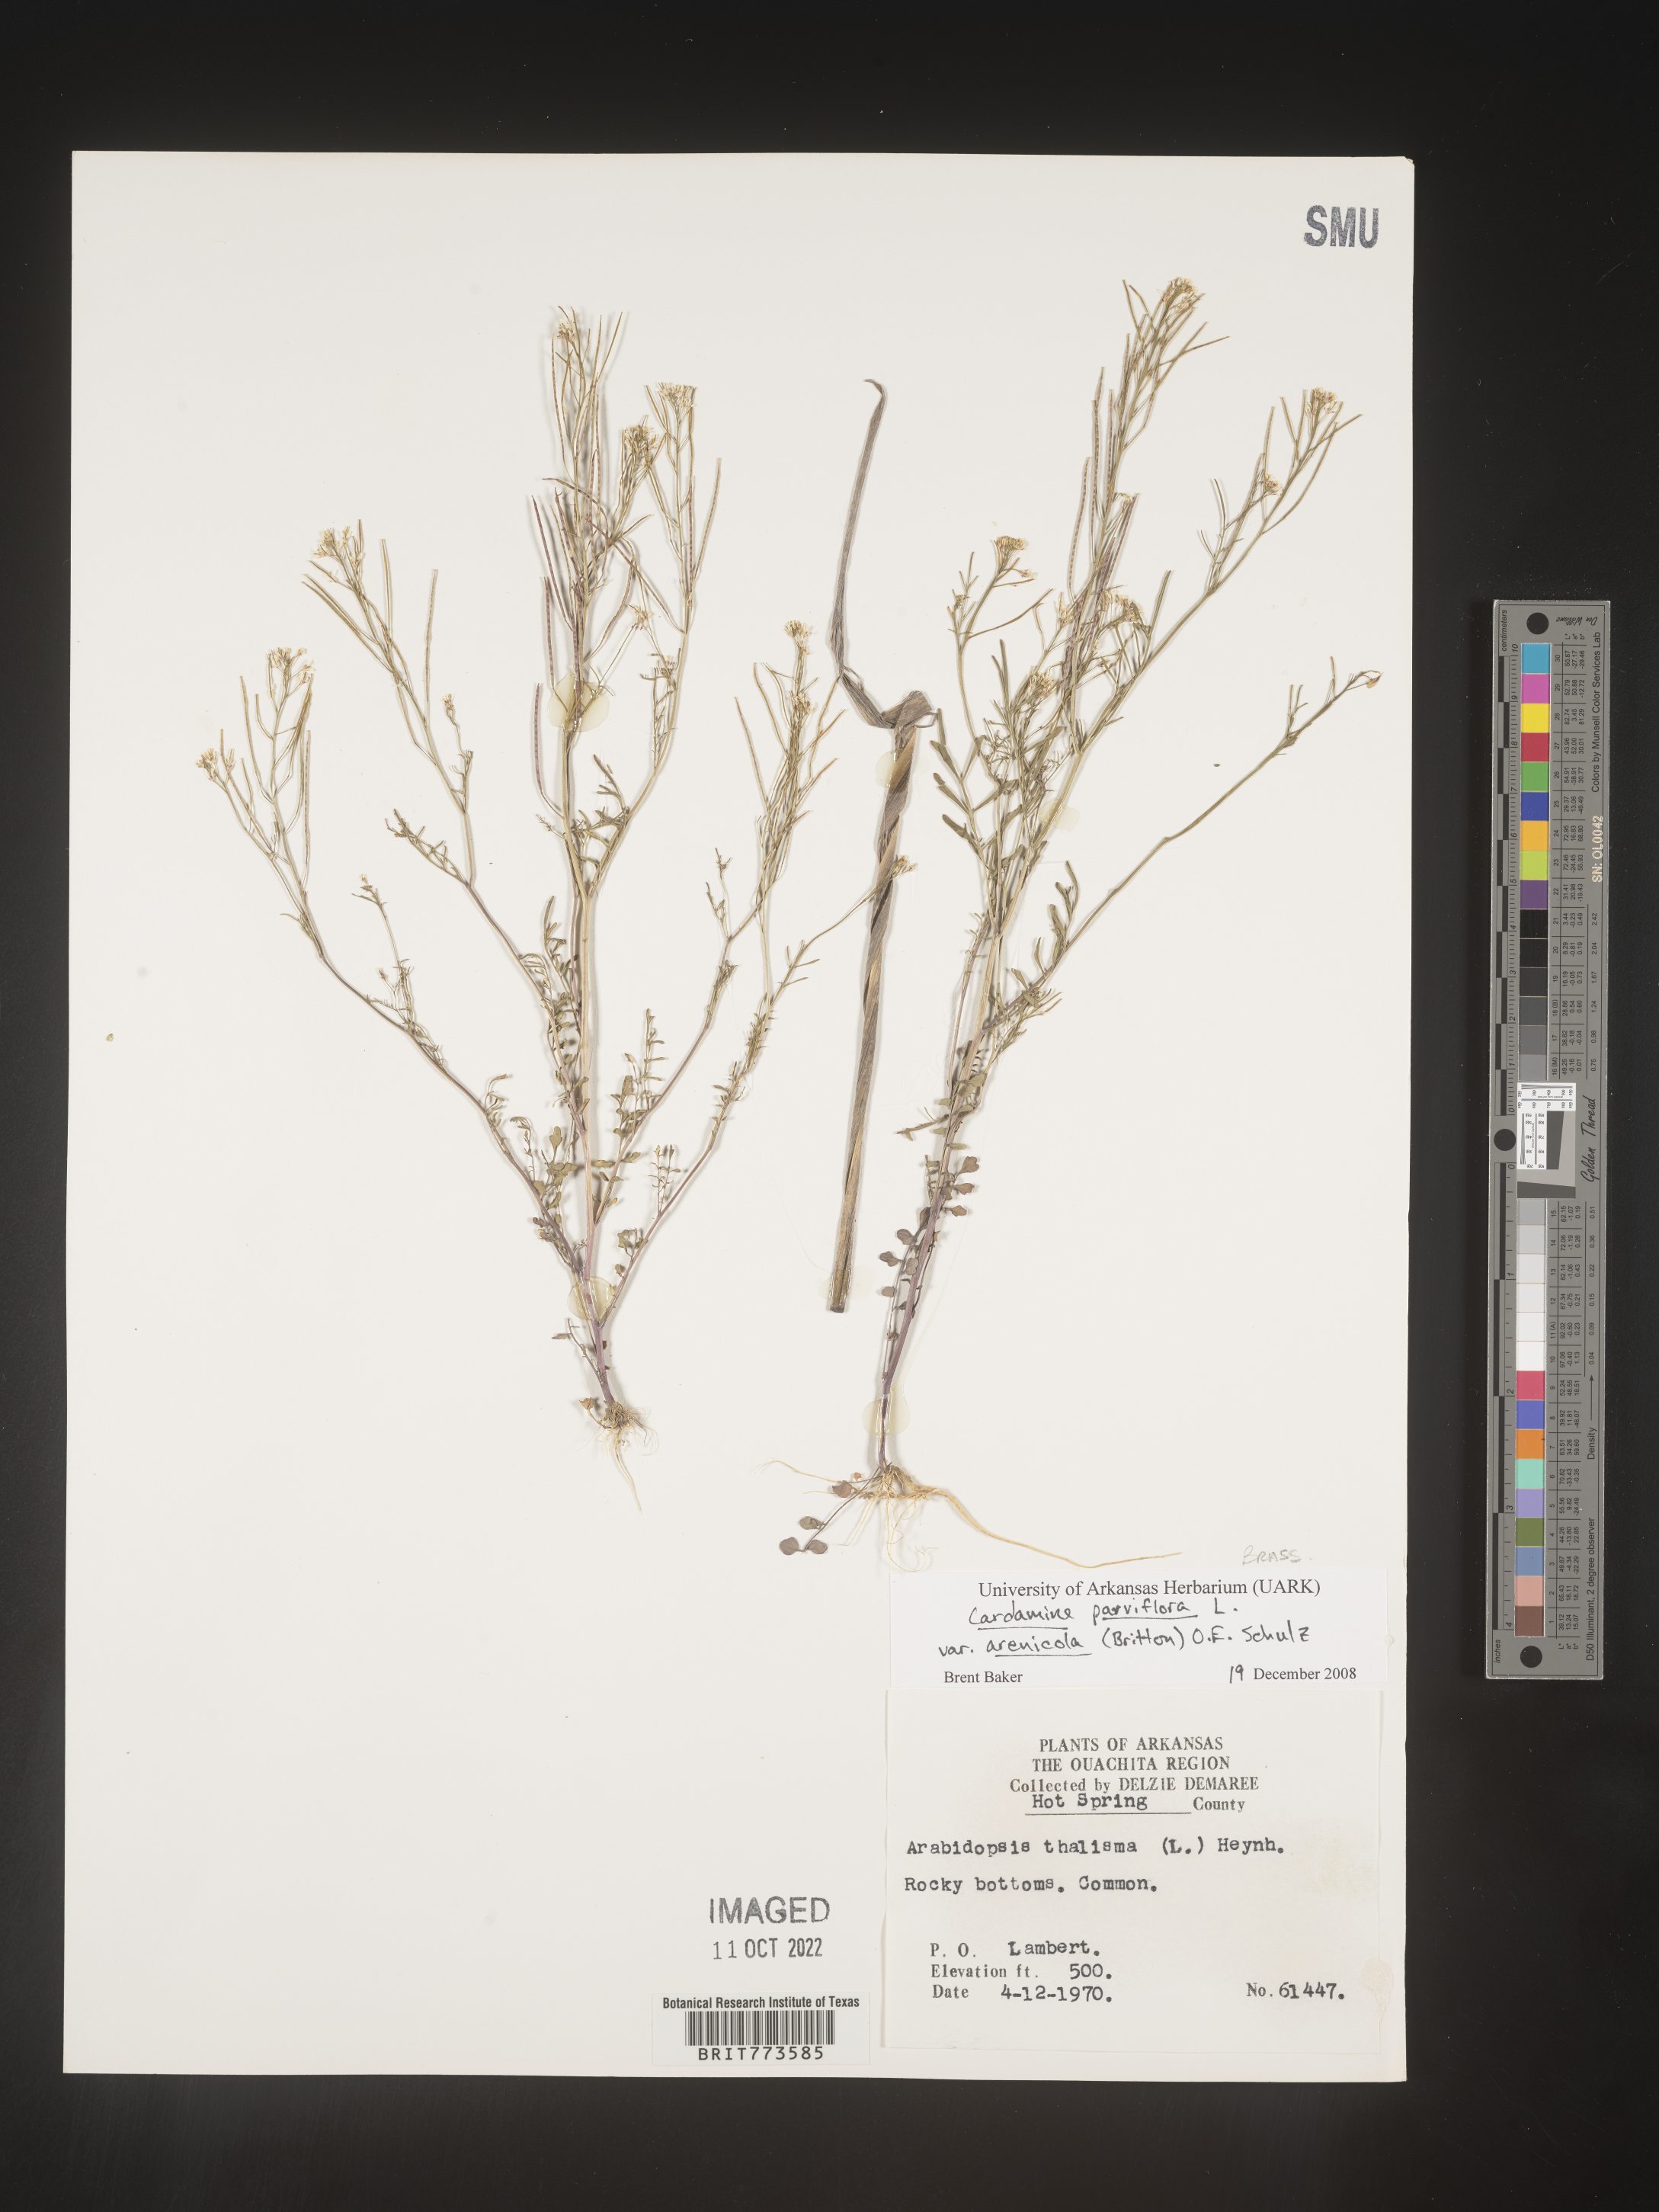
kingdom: Plantae
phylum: Tracheophyta
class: Magnoliopsida
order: Brassicales
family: Brassicaceae
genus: Cardamine
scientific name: Cardamine parviflora
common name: Sand bittercress
